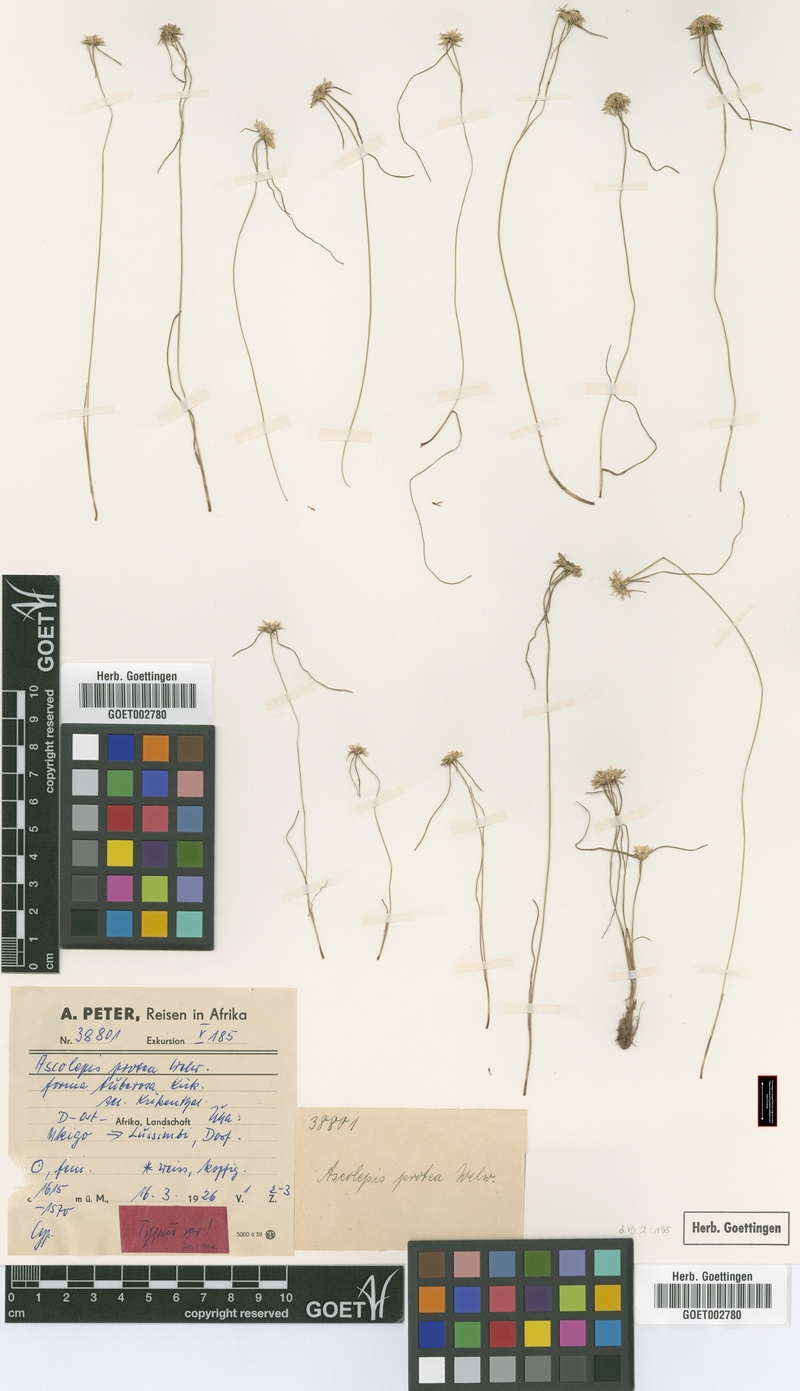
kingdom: Plantae
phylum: Tracheophyta
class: Liliopsida
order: Poales
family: Cyperaceae
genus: Cyperus
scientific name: Cyperus proteus
